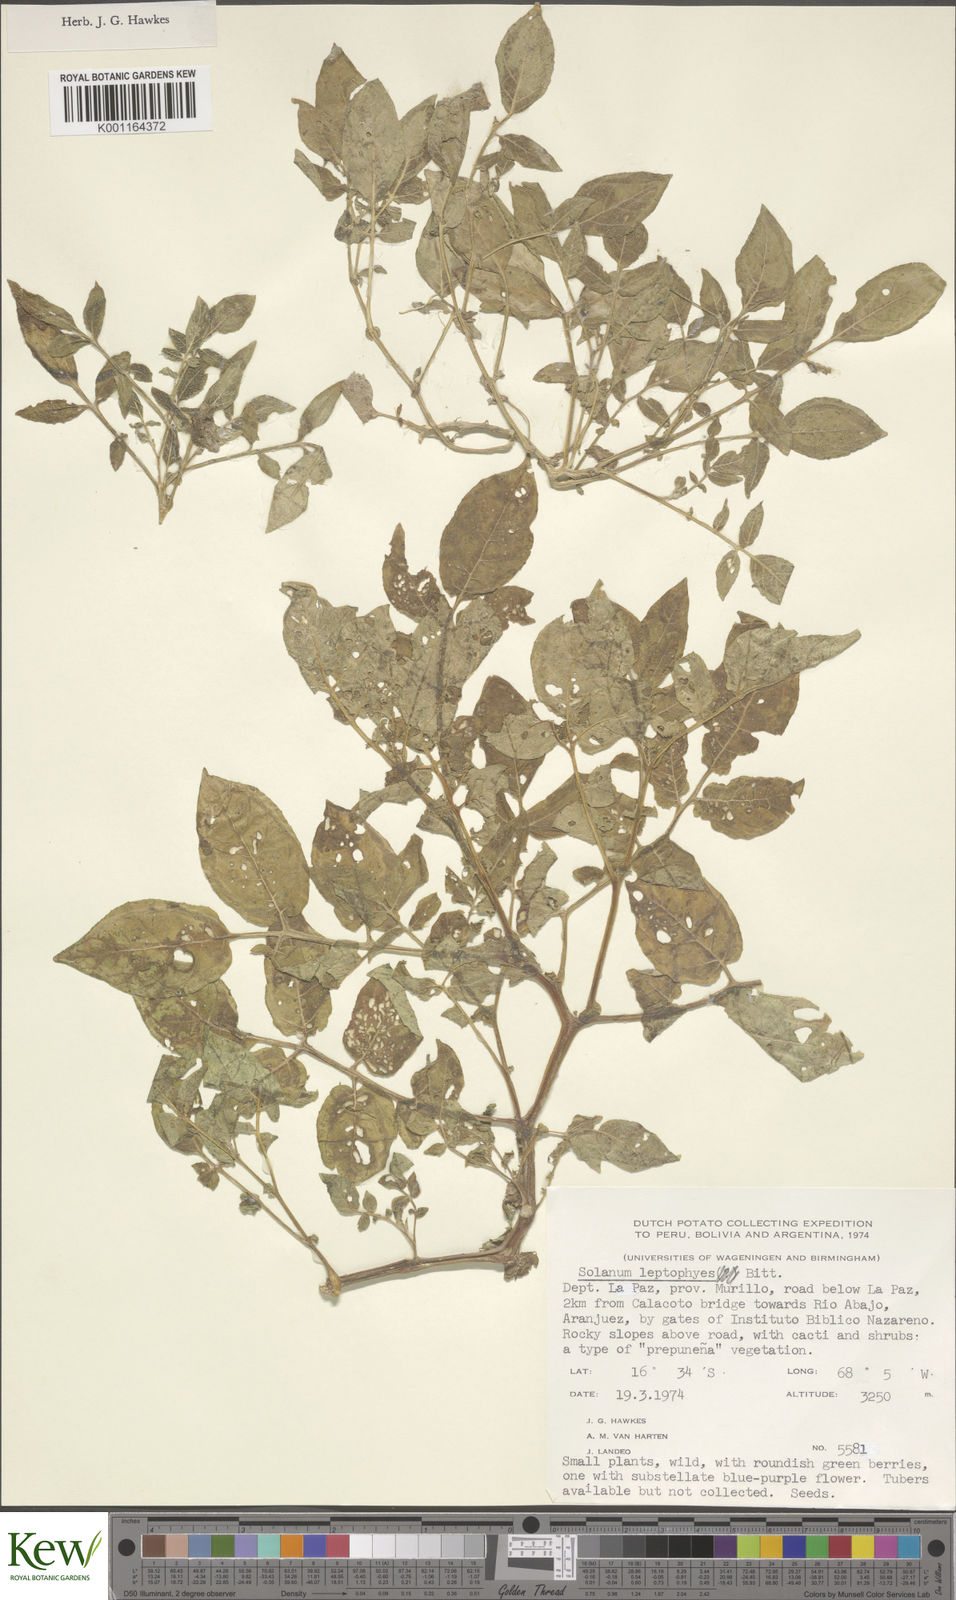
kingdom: Plantae
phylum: Tracheophyta
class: Magnoliopsida
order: Solanales
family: Solanaceae
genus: Solanum
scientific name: Solanum brevicaule
